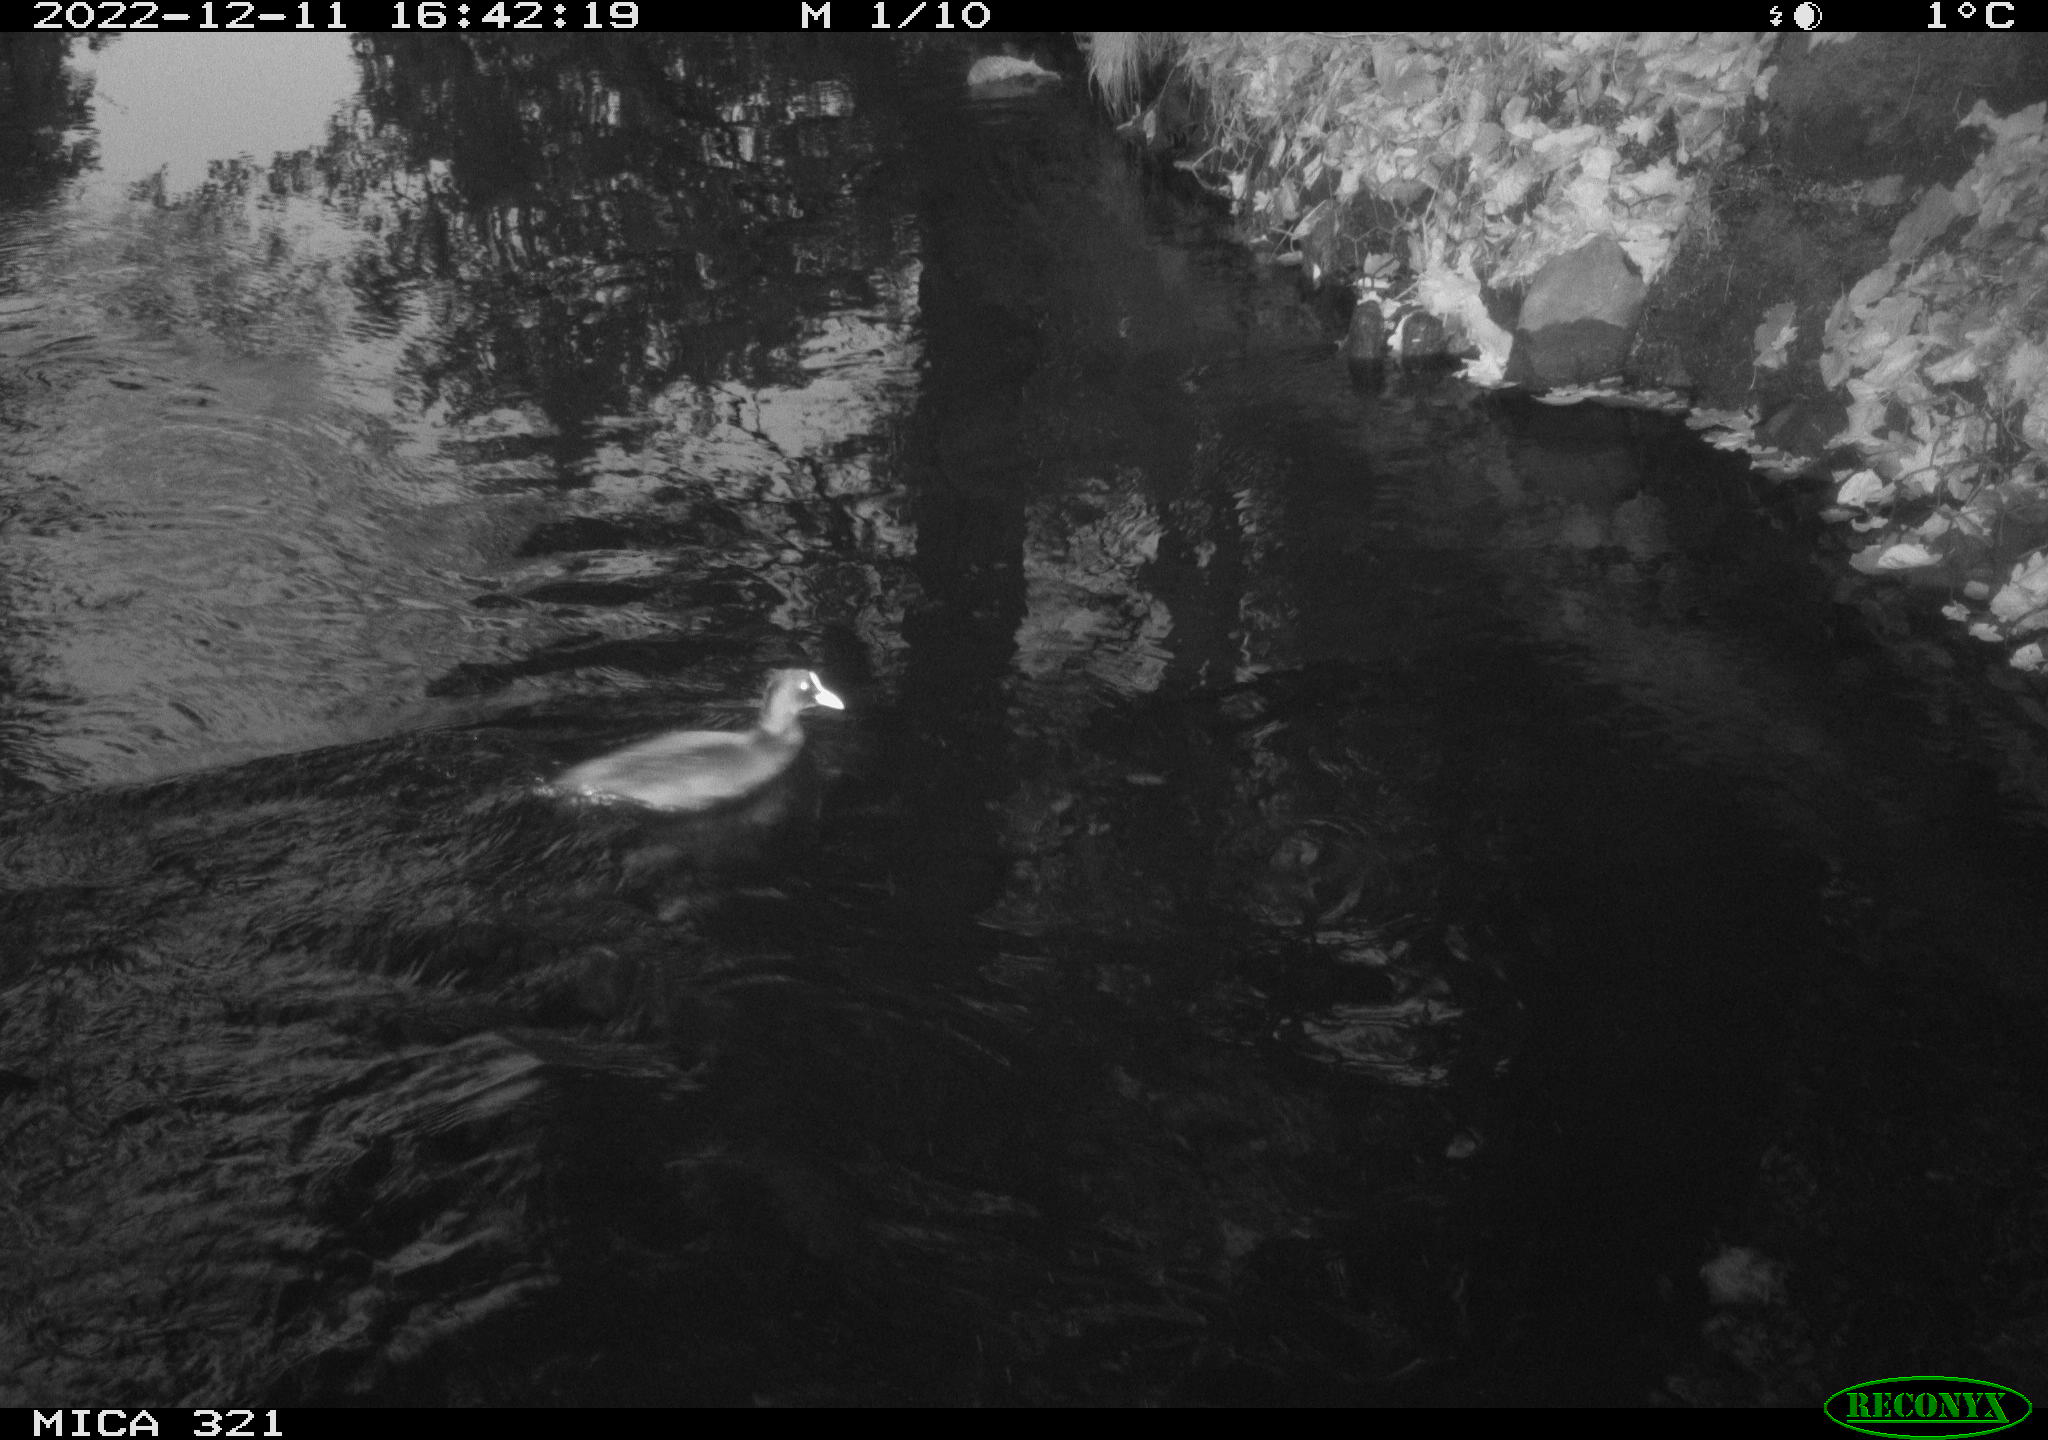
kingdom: Animalia
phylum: Chordata
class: Aves
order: Anseriformes
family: Anatidae
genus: Anas
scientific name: Anas
